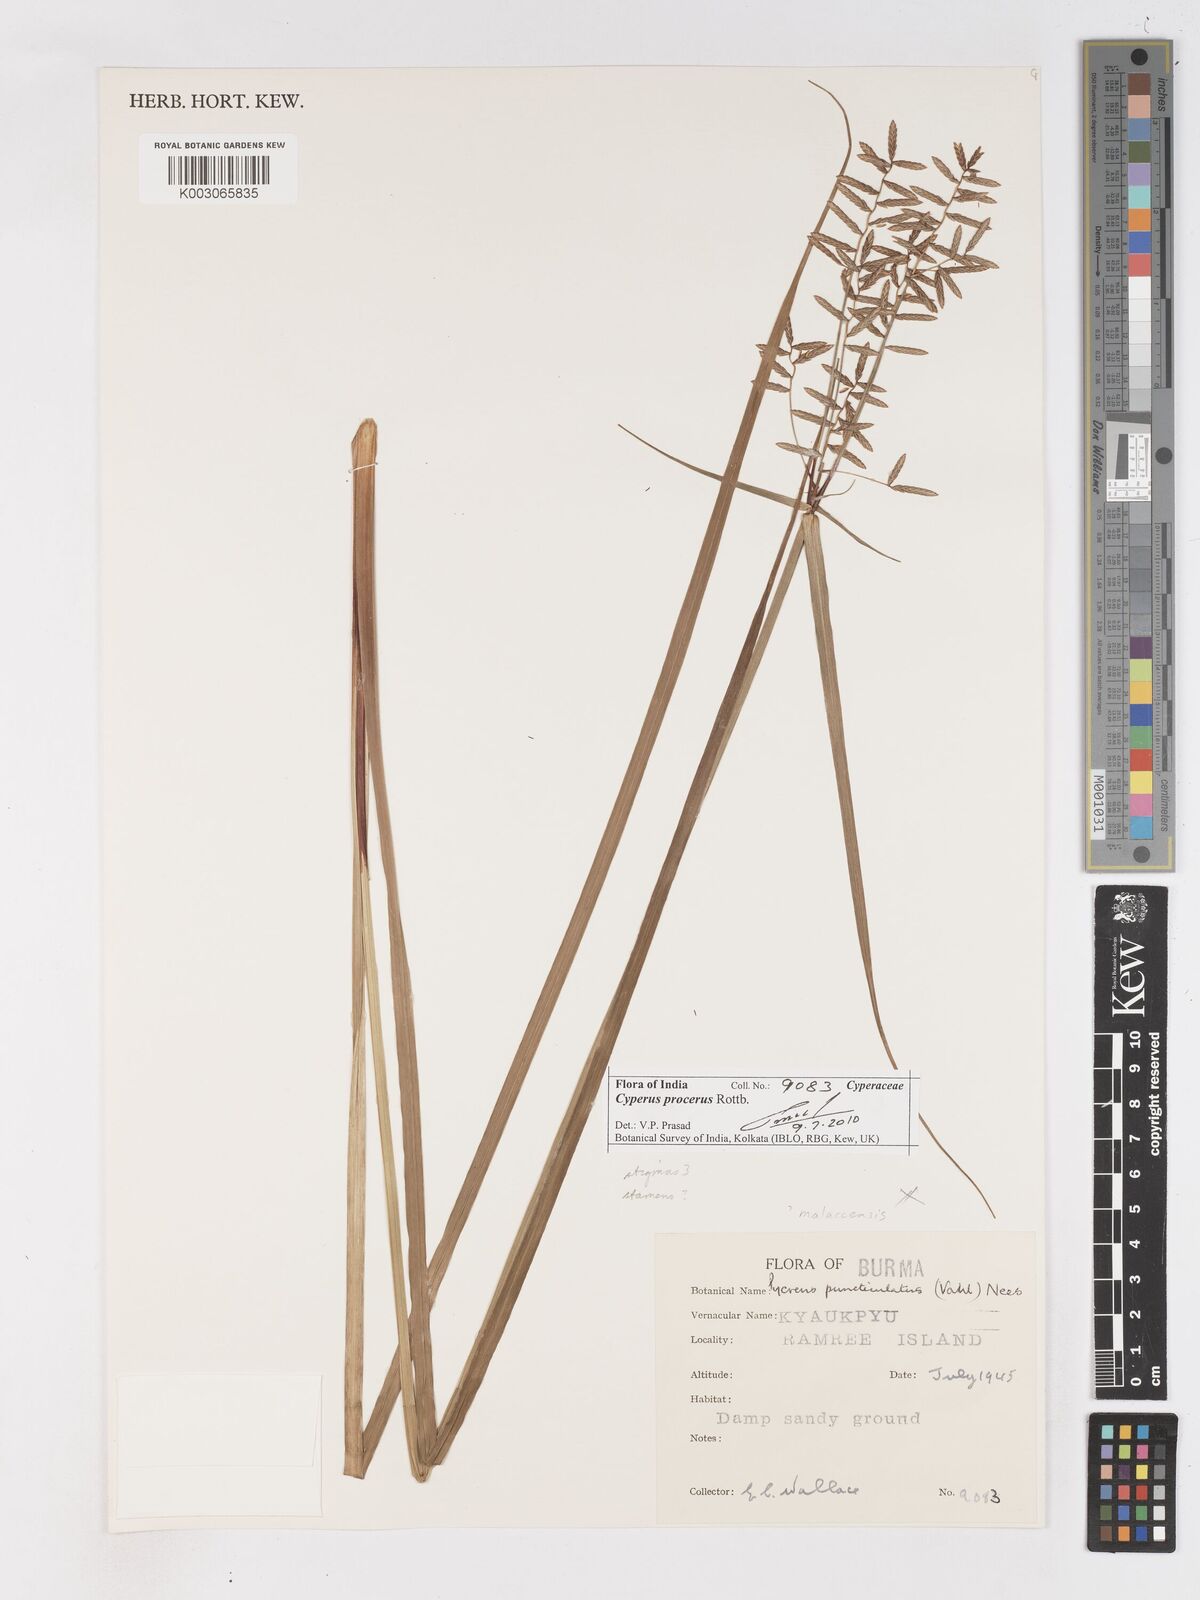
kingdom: Plantae
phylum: Tracheophyta
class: Liliopsida
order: Poales
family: Cyperaceae
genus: Cyperus
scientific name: Cyperus malaccensis
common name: Shichito matgrass
